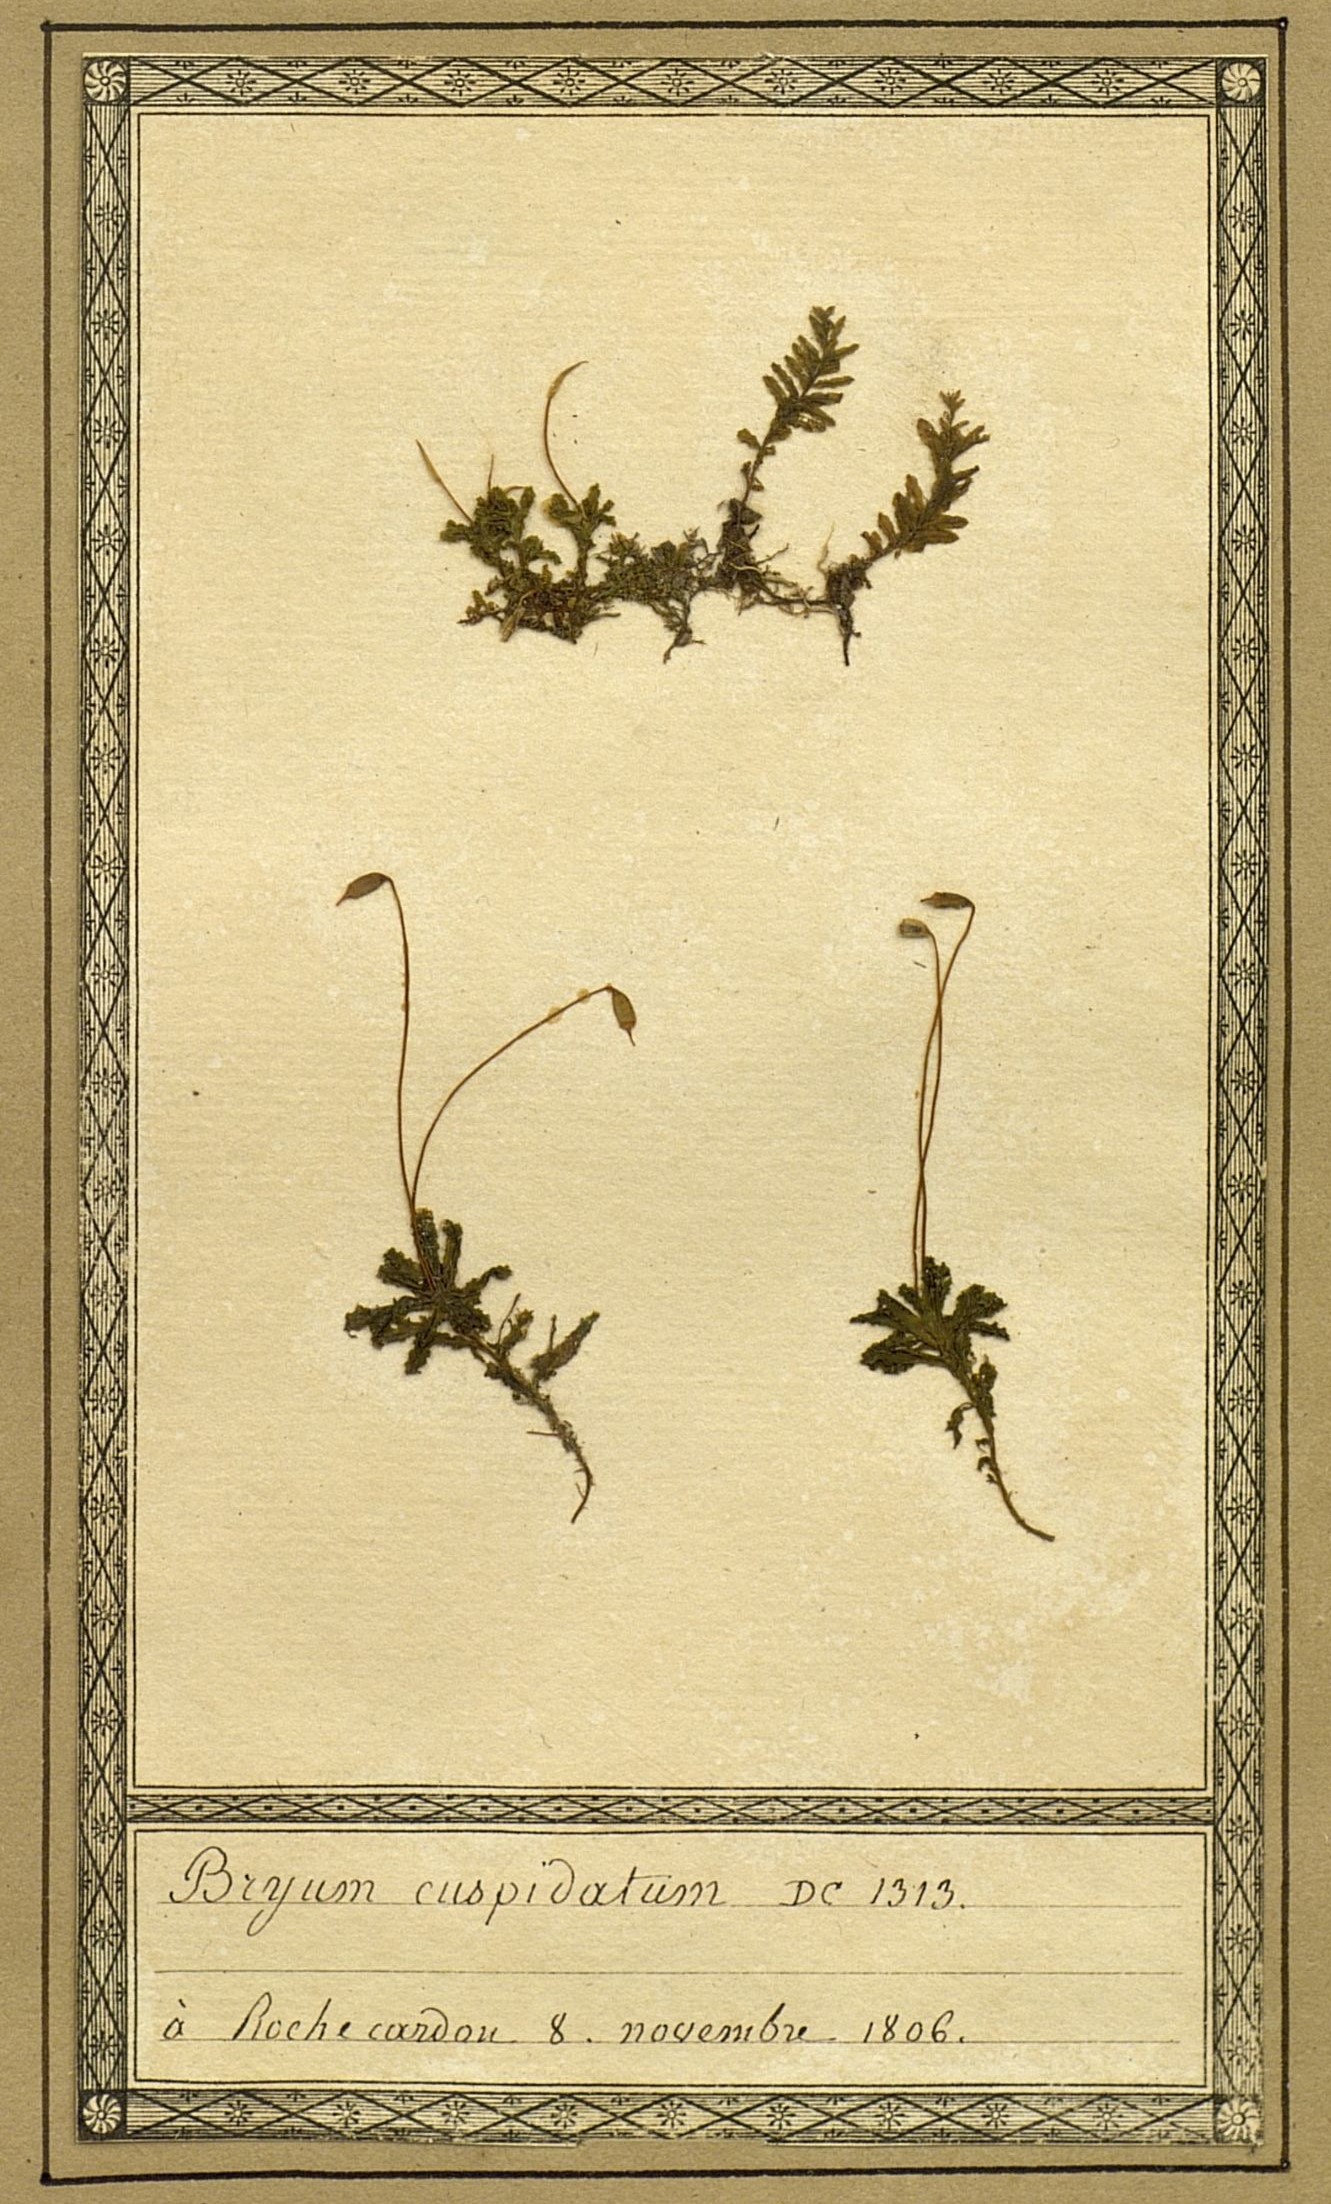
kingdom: Plantae
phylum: Bryophyta
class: Bryopsida
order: Bryales
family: Bryaceae
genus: Ptychostomum
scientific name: Ptychostomum creberrimum
